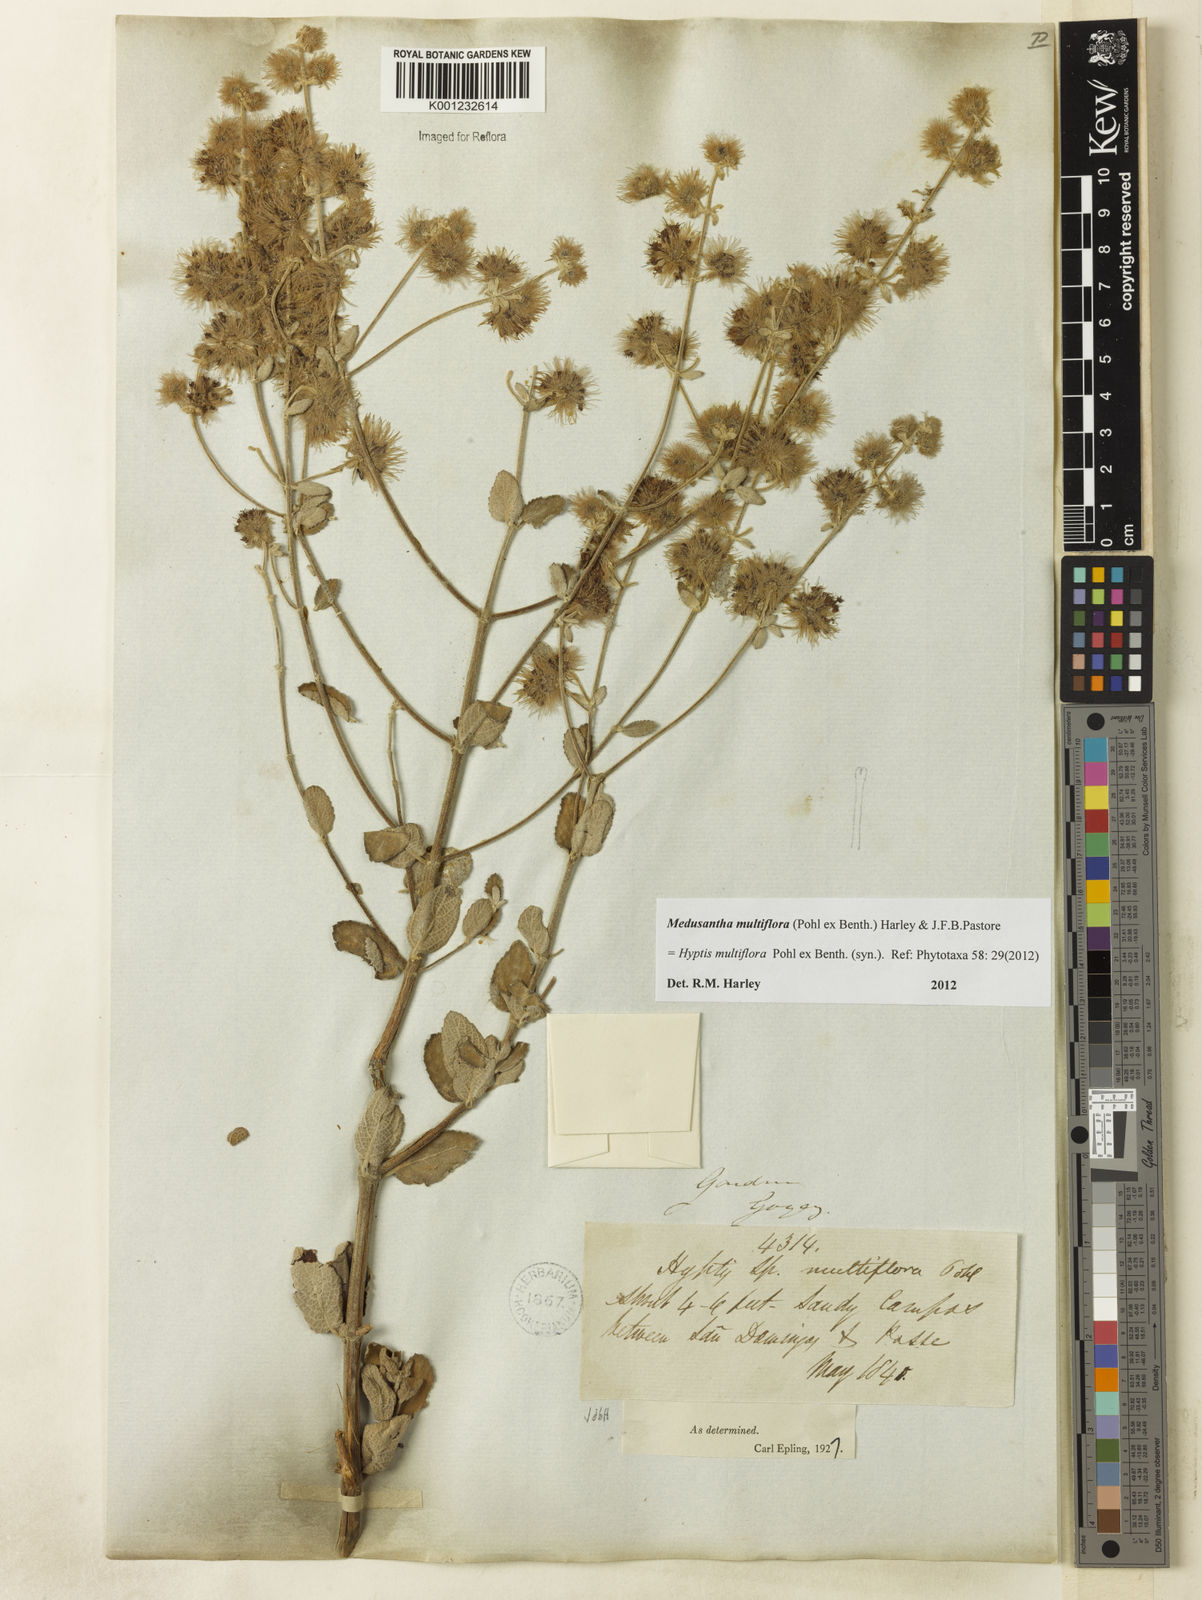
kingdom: Plantae
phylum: Tracheophyta
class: Magnoliopsida
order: Lamiales
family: Lamiaceae
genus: Medusantha
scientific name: Medusantha multiflora
